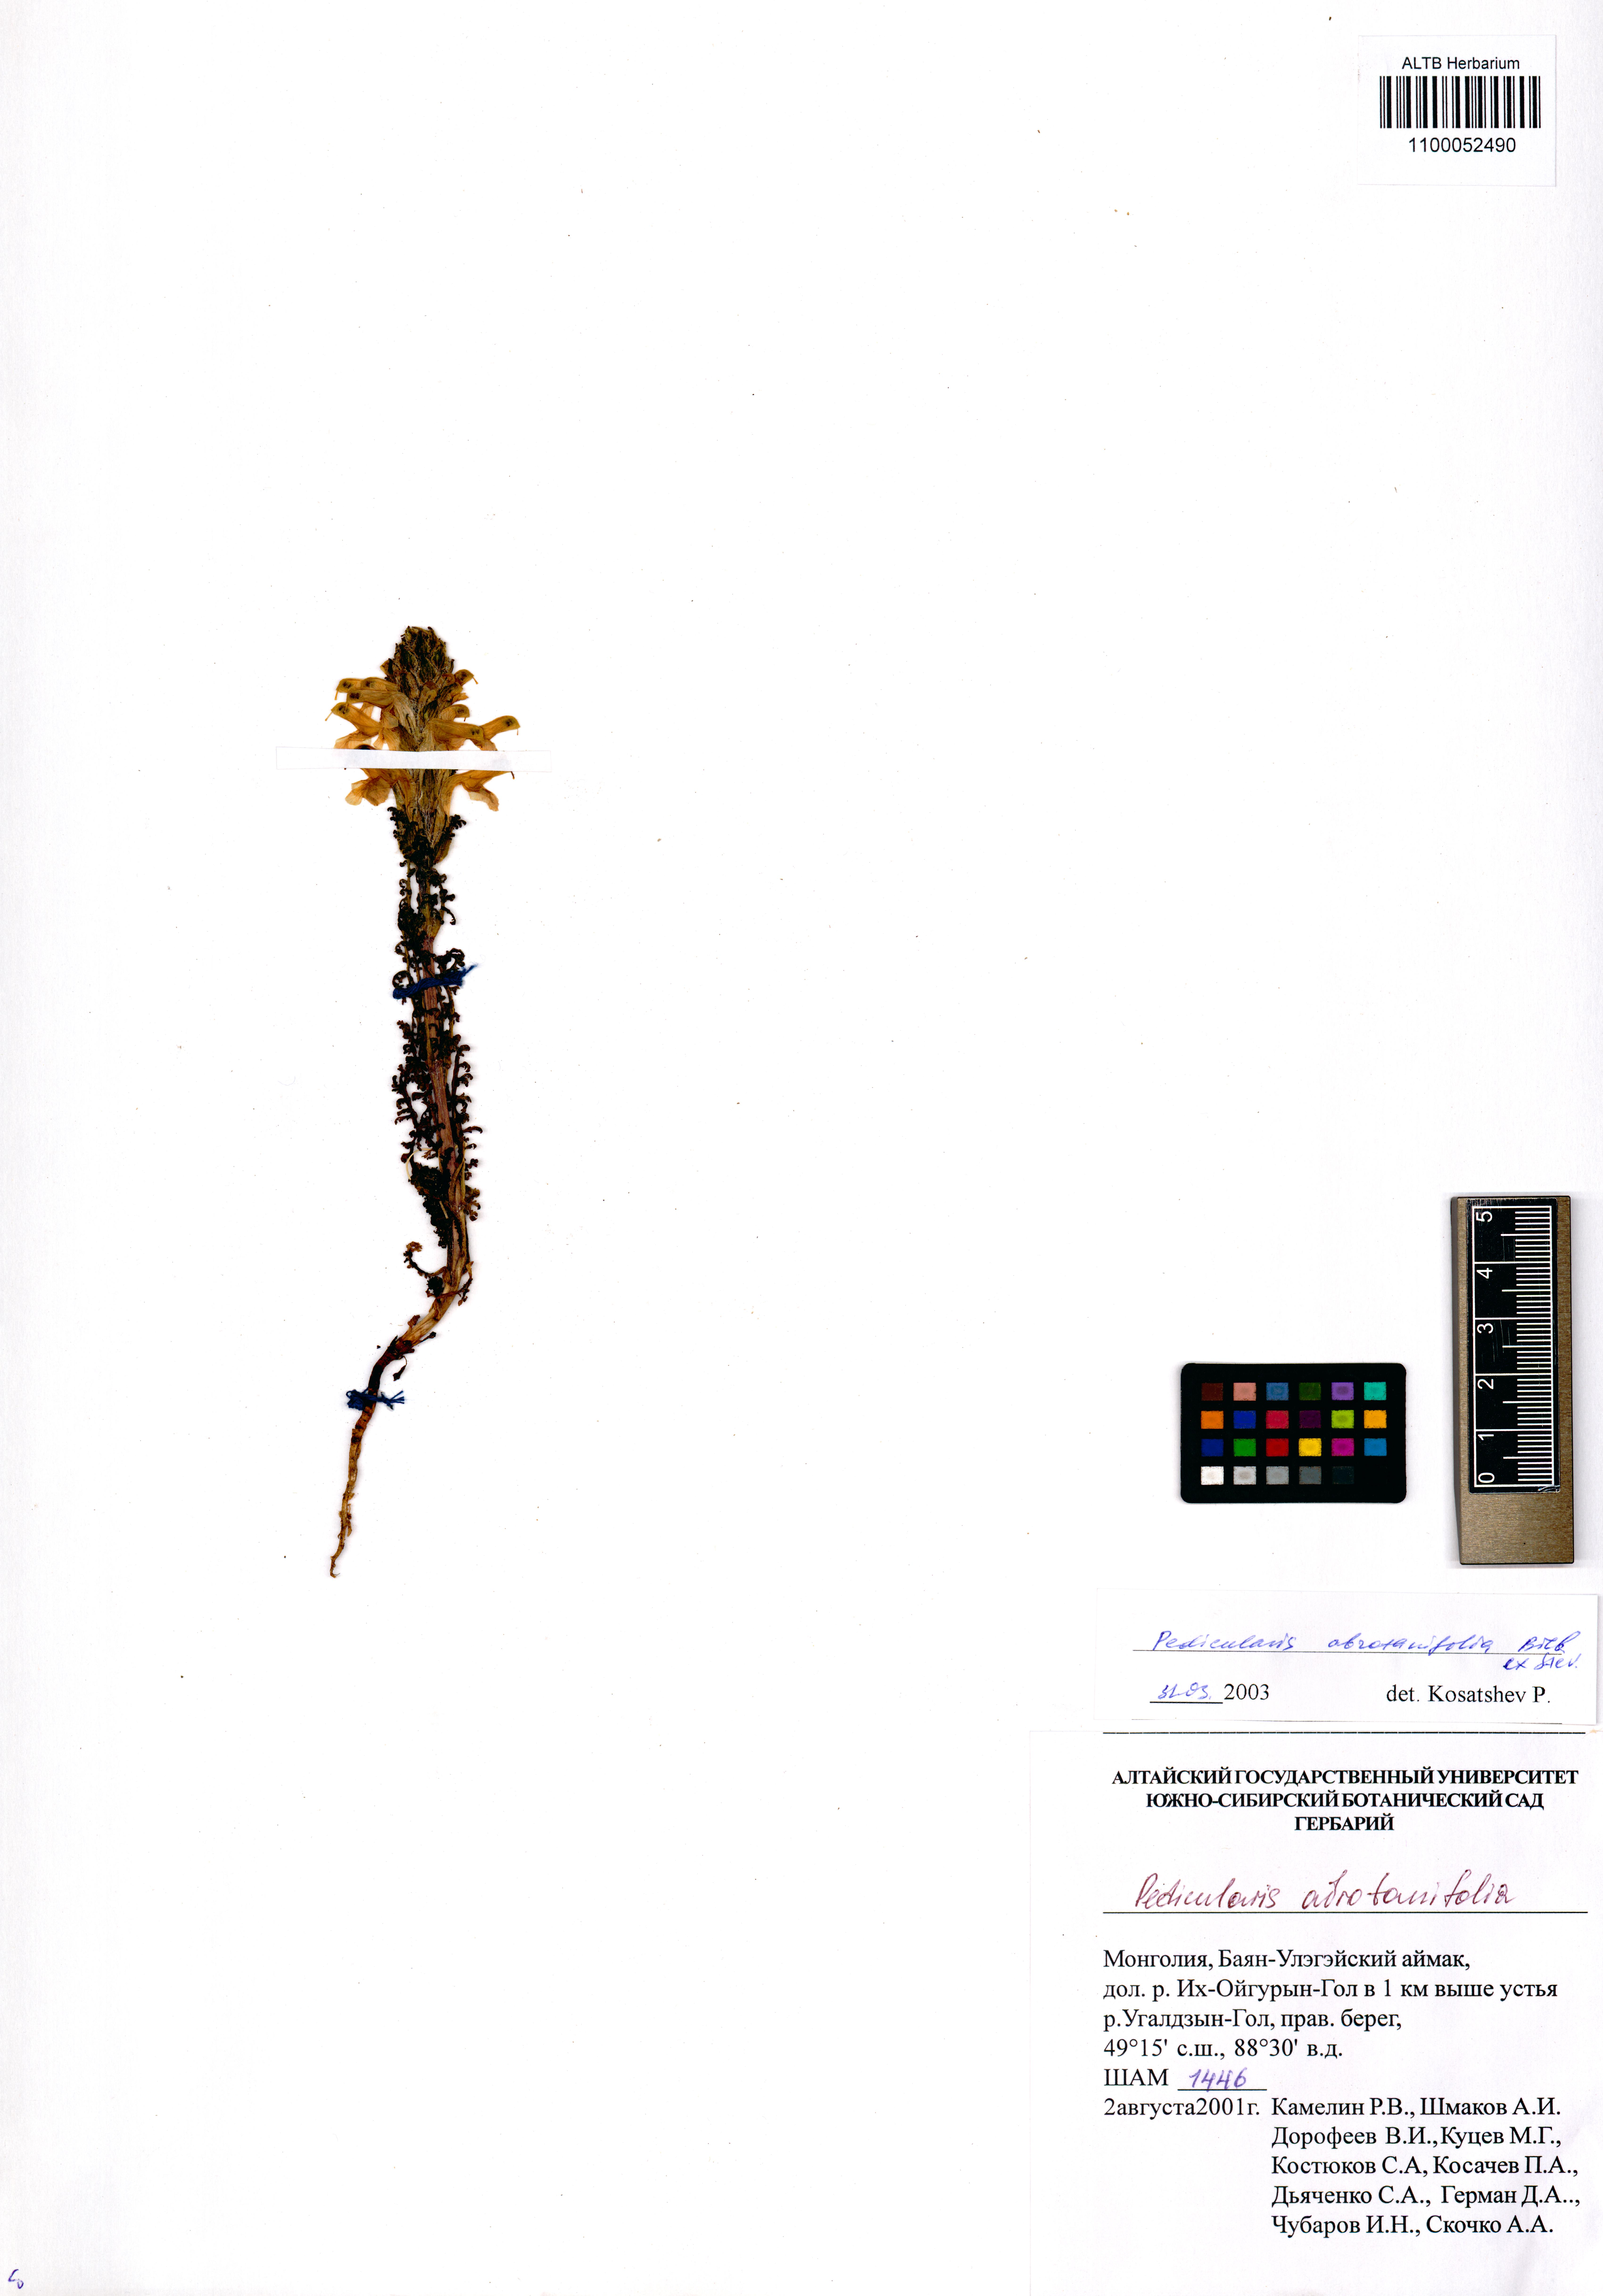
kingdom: Plantae
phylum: Tracheophyta
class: Magnoliopsida
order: Lamiales
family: Orobanchaceae
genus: Pedicularis
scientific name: Pedicularis abrotanifolia
